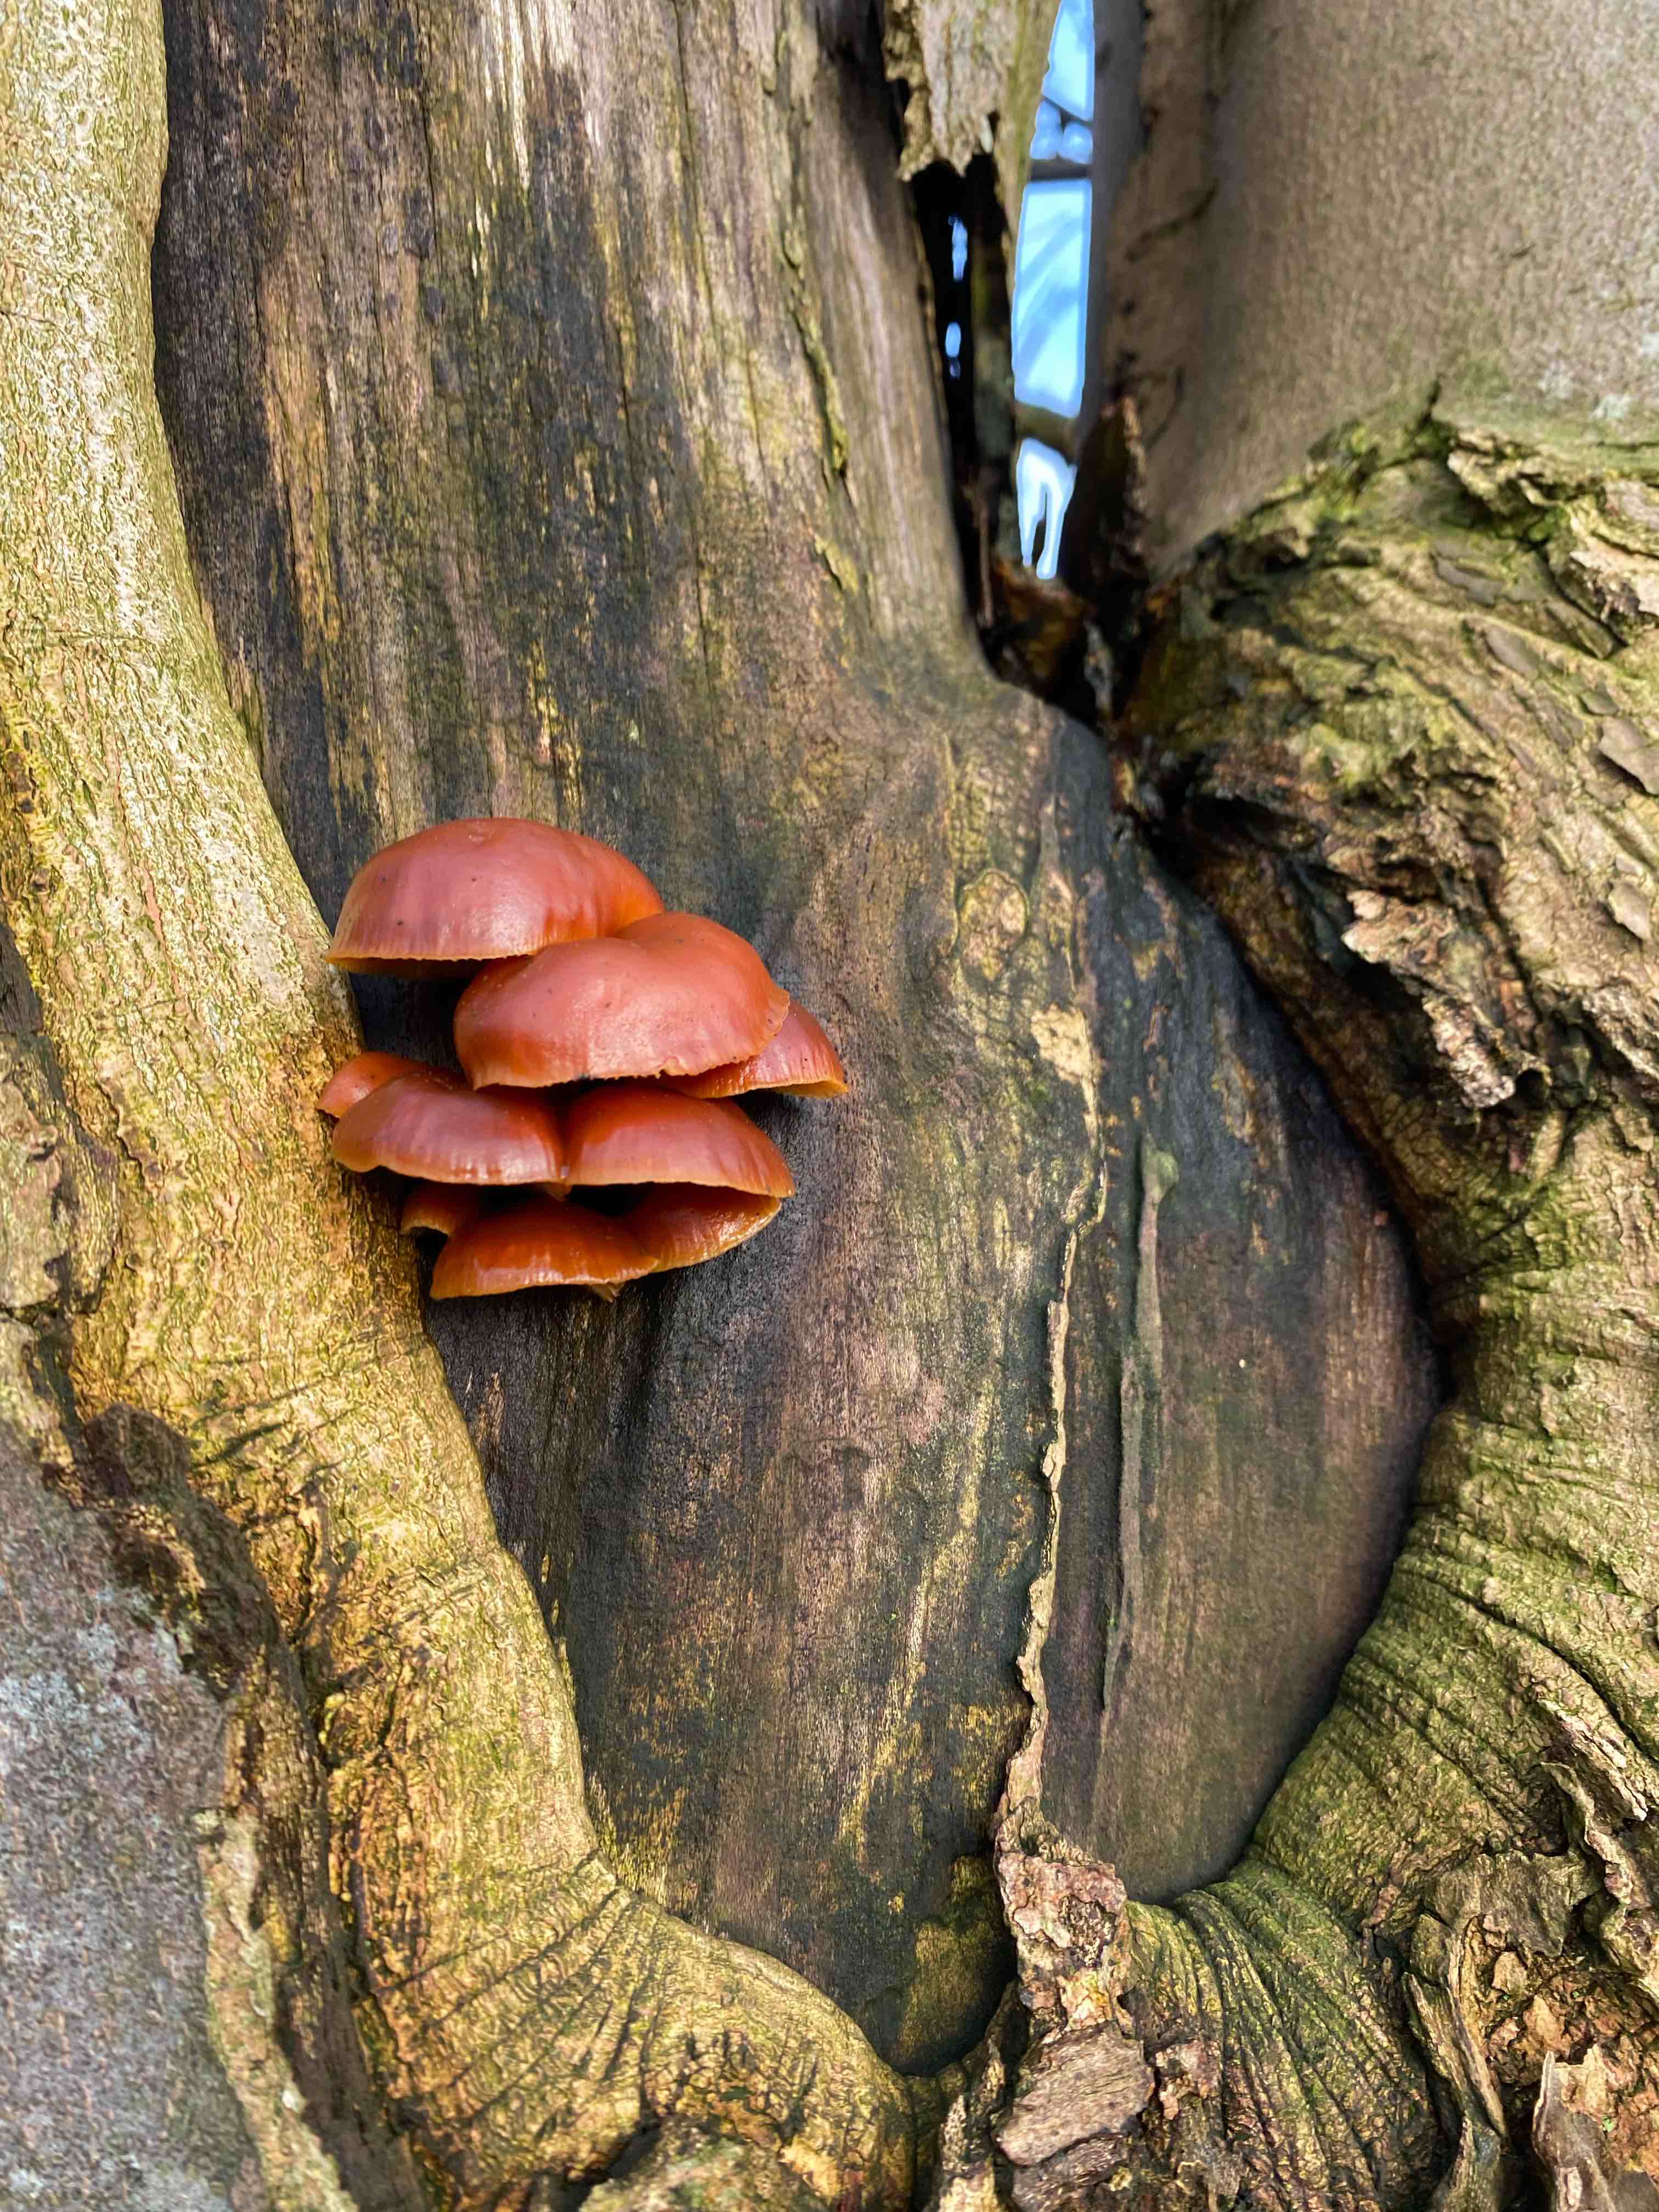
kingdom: Fungi
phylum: Basidiomycota
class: Agaricomycetes
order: Agaricales
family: Physalacriaceae
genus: Flammulina
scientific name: Flammulina velutipes
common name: gul fløjlsfod
